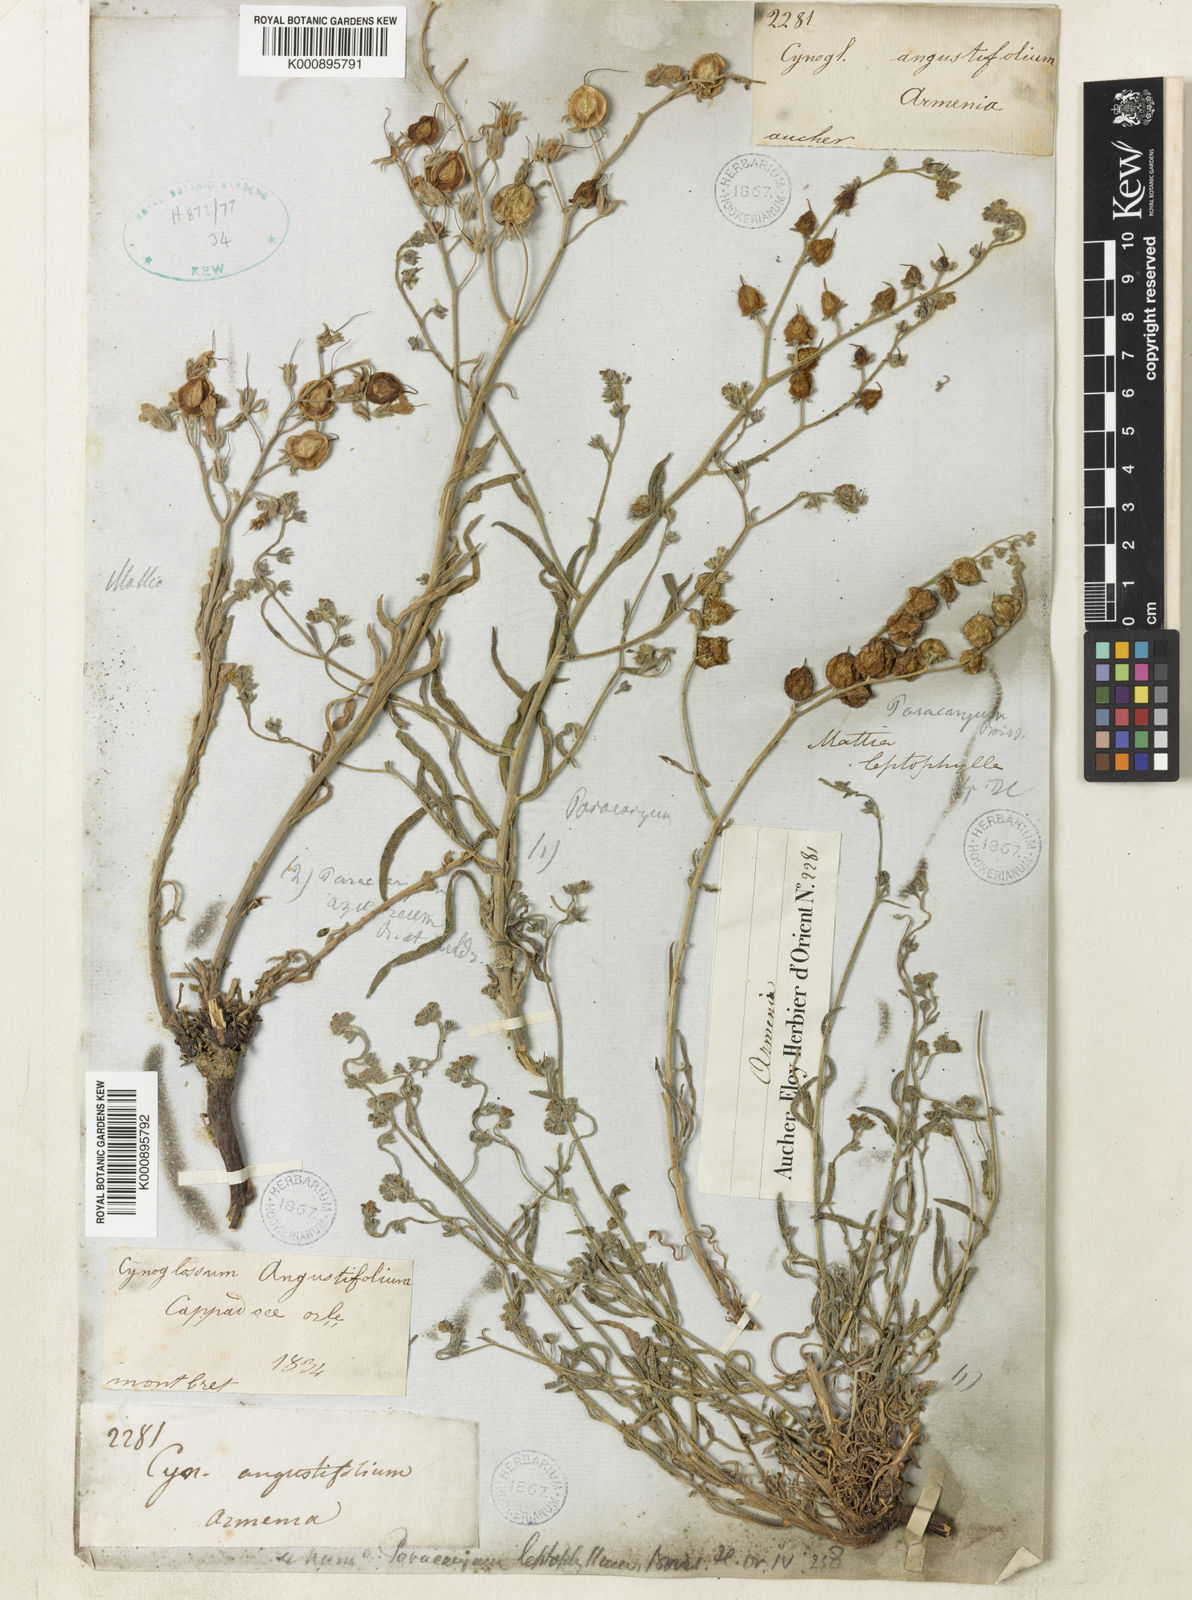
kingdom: Plantae
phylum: Tracheophyta
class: Magnoliopsida
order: Boraginales
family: Boraginaceae
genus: Paracaryum
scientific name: Paracaryum leptophyllum
